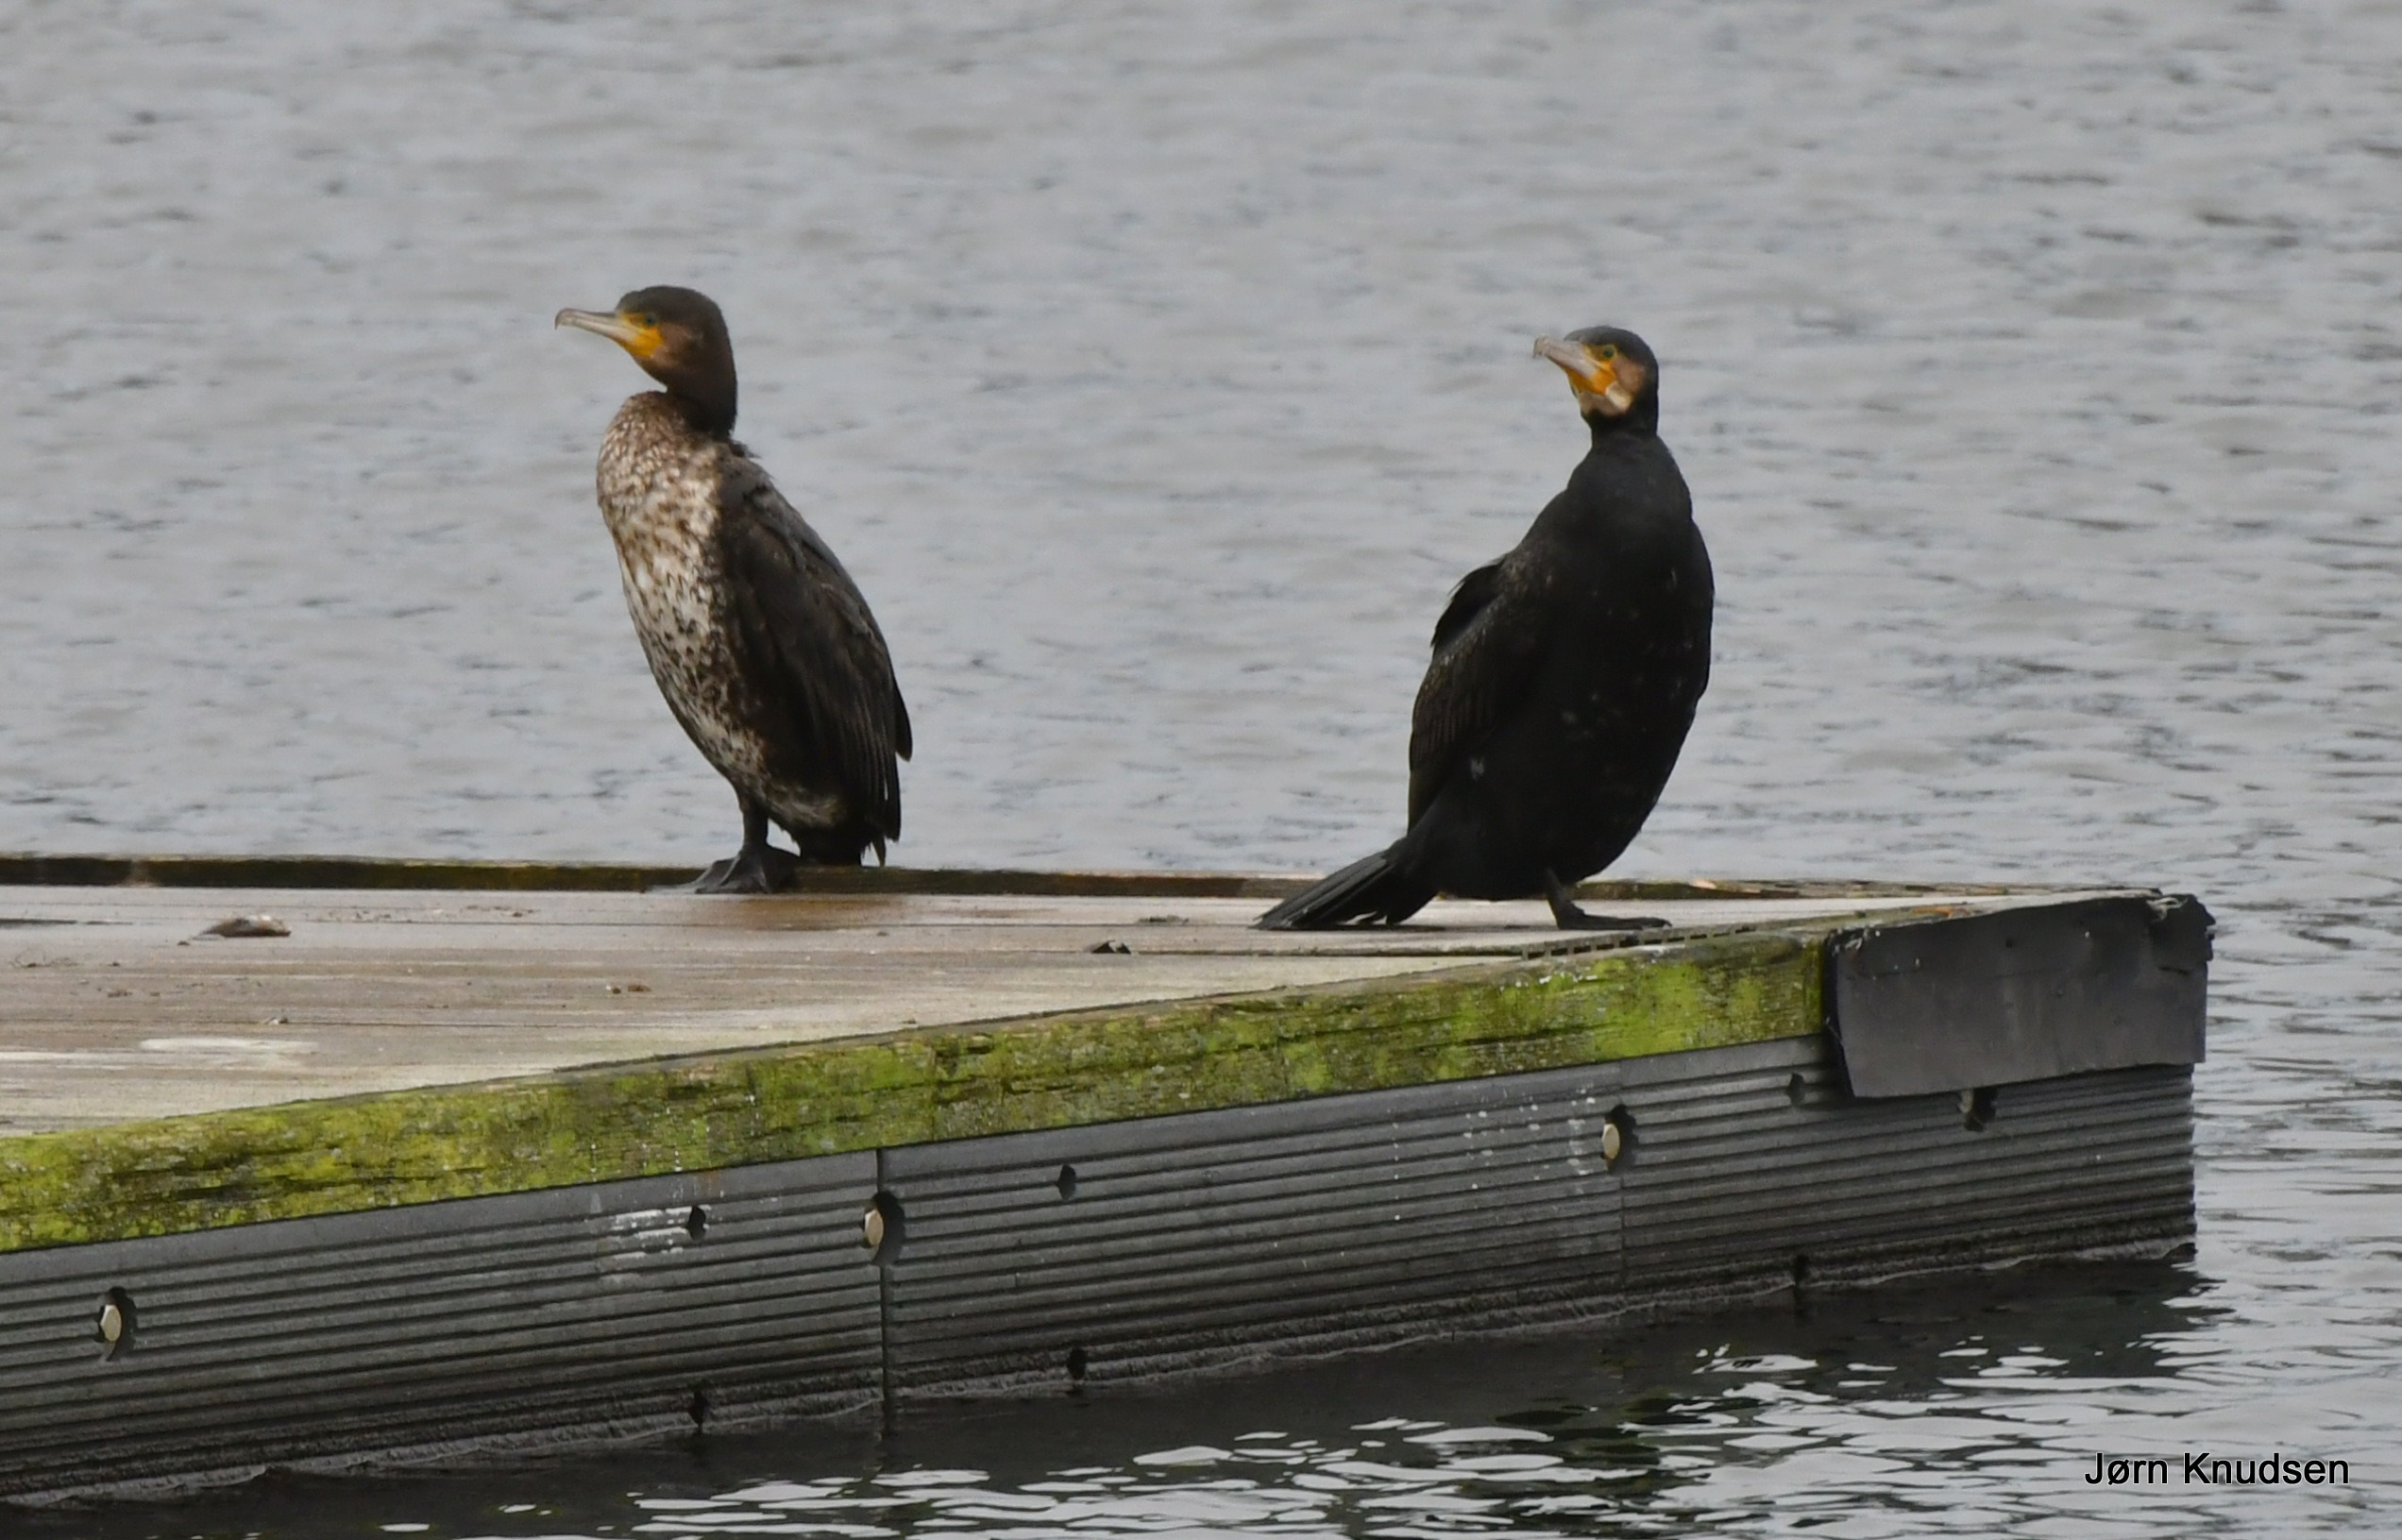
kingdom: Animalia
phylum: Chordata
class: Aves
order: Suliformes
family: Phalacrocoracidae
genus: Phalacrocorax
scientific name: Phalacrocorax carbo
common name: Mellemskarv
